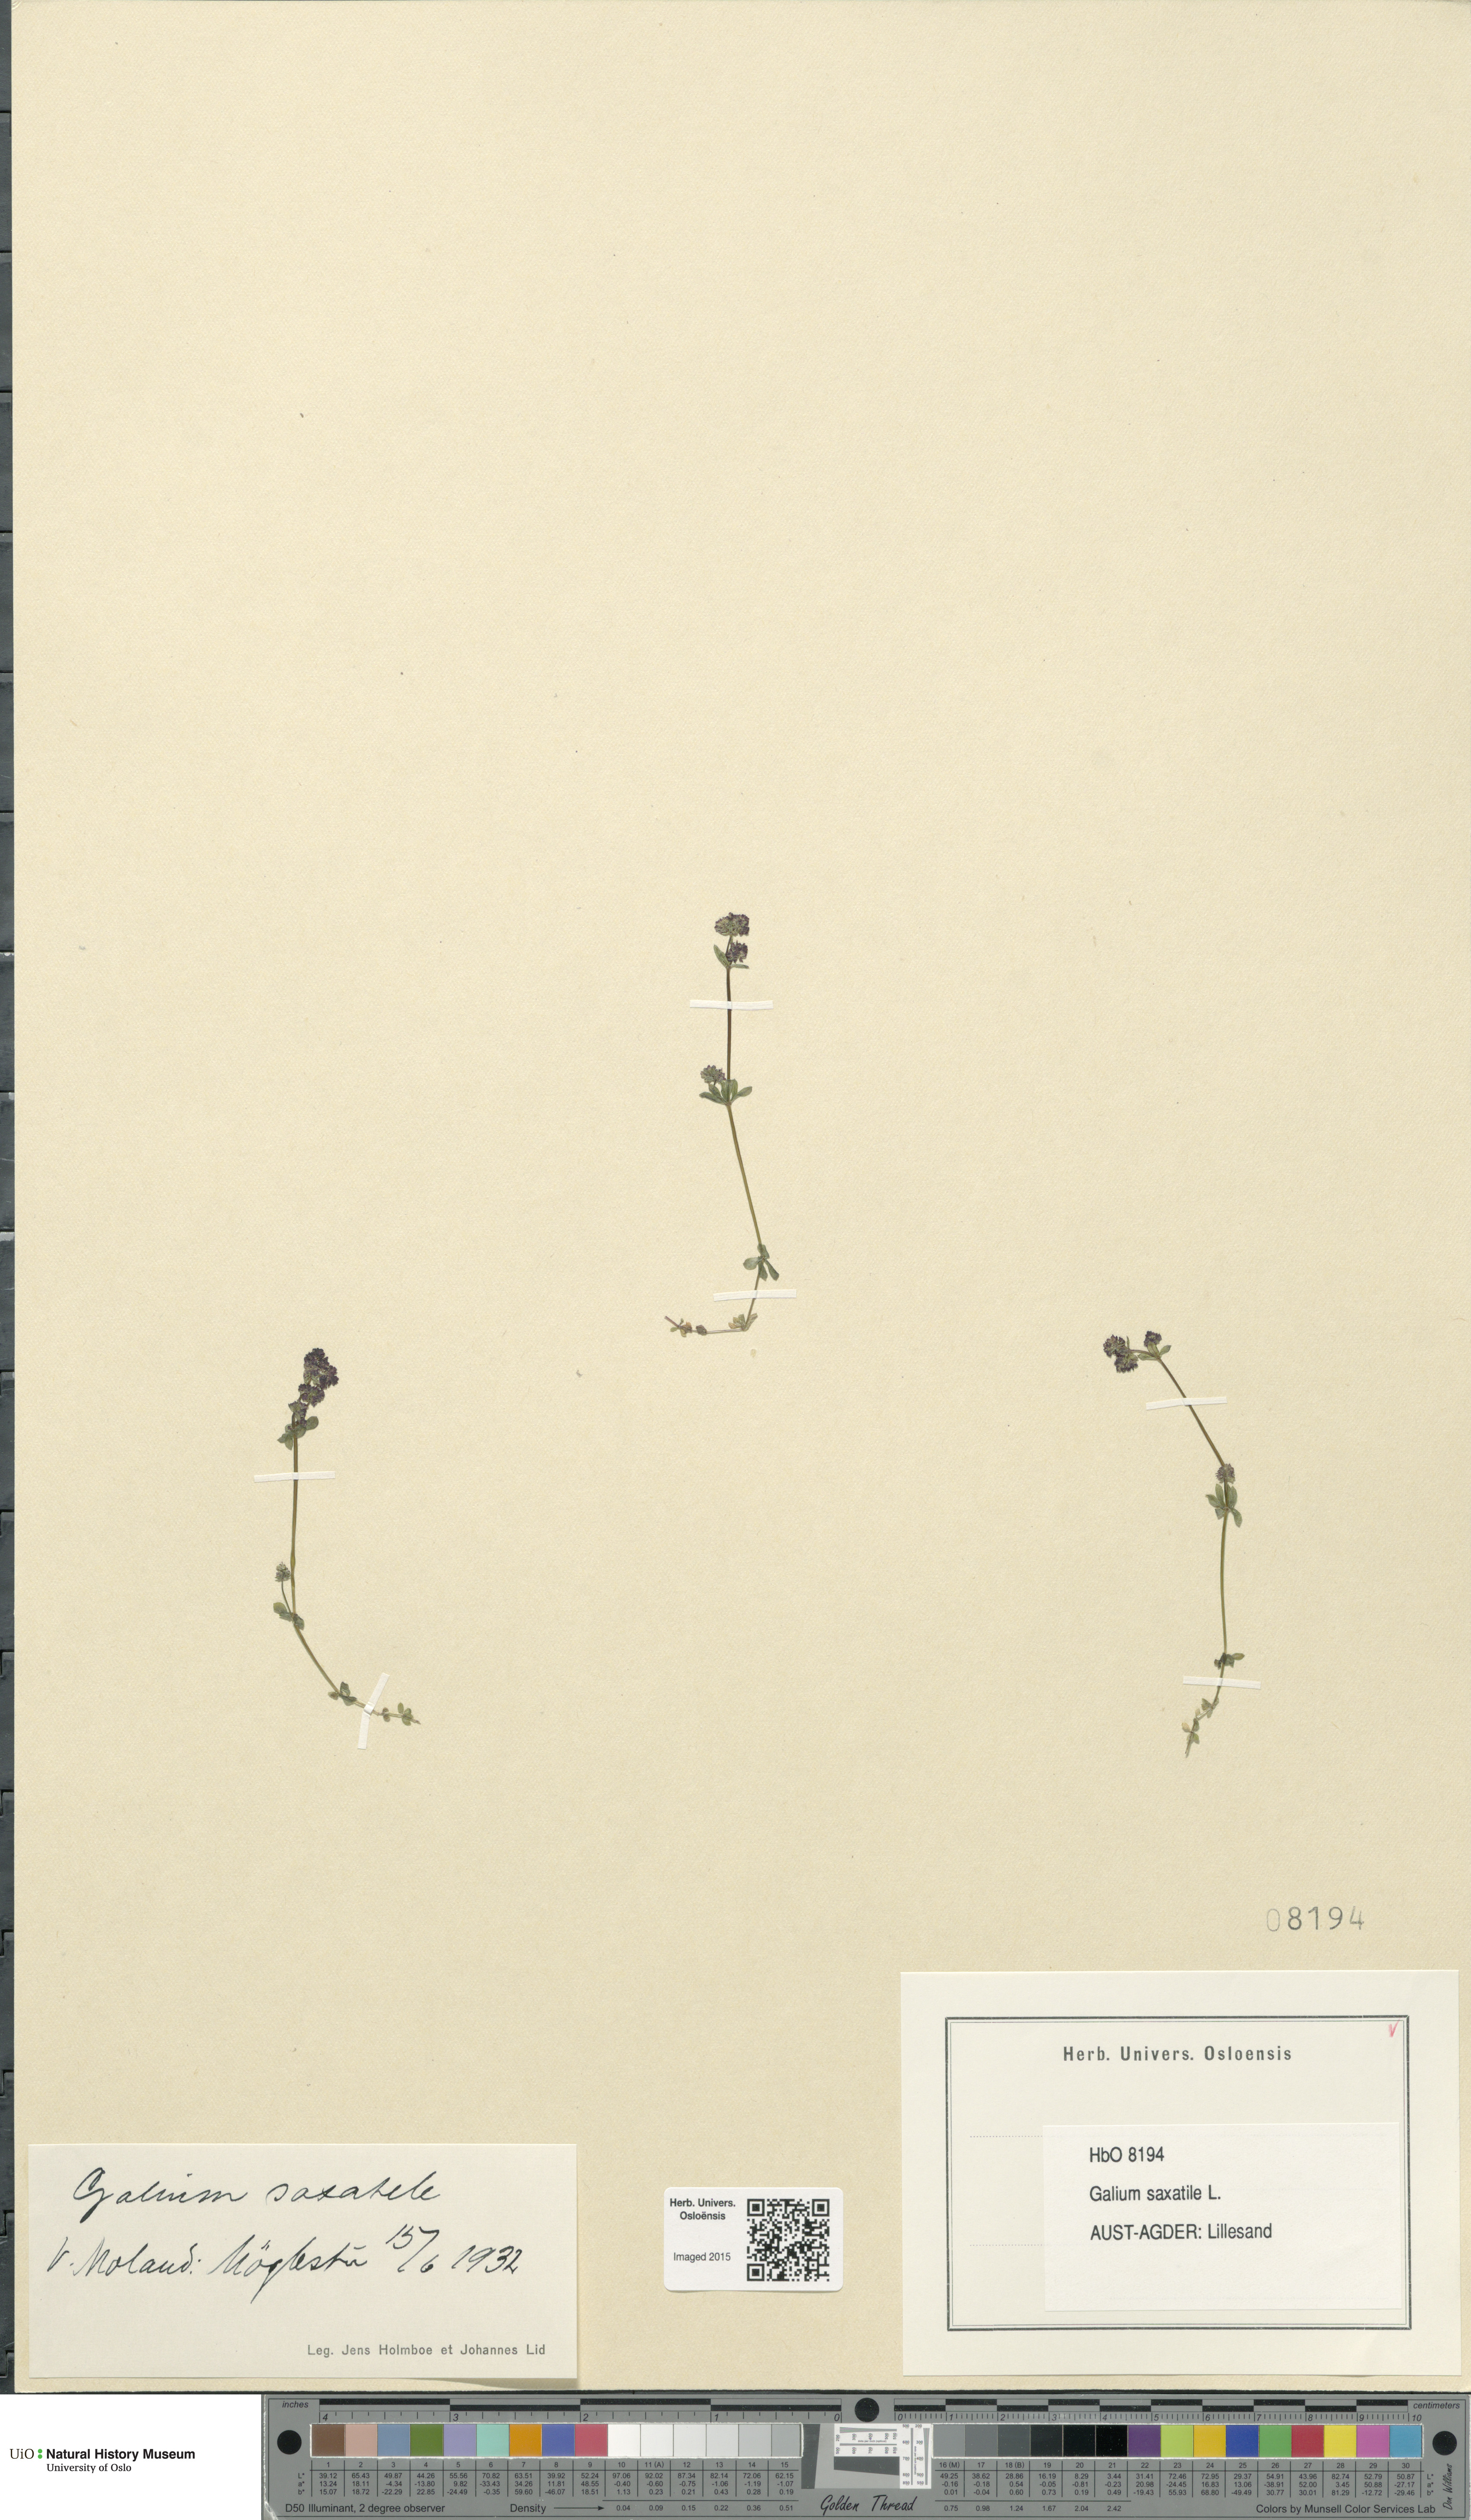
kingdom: Plantae
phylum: Tracheophyta
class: Magnoliopsida
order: Gentianales
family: Rubiaceae
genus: Galium
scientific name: Galium saxatile
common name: Heath bedstraw
